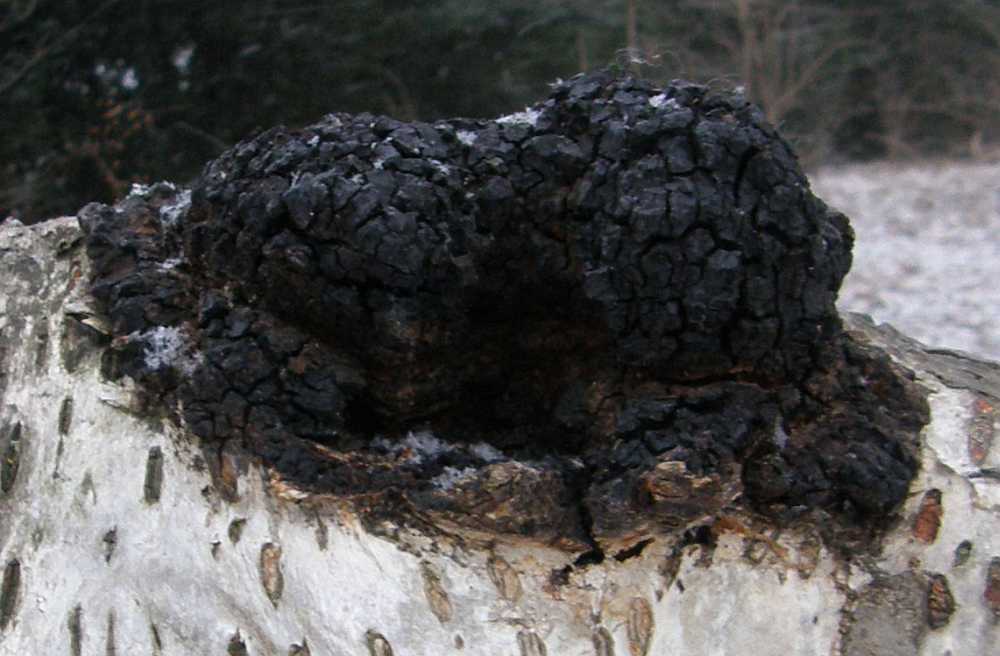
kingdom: Fungi
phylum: Basidiomycota
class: Agaricomycetes
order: Hymenochaetales
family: Hymenochaetaceae
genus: Inonotus
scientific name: Inonotus obliquus
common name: birke-spejlporesvamp
